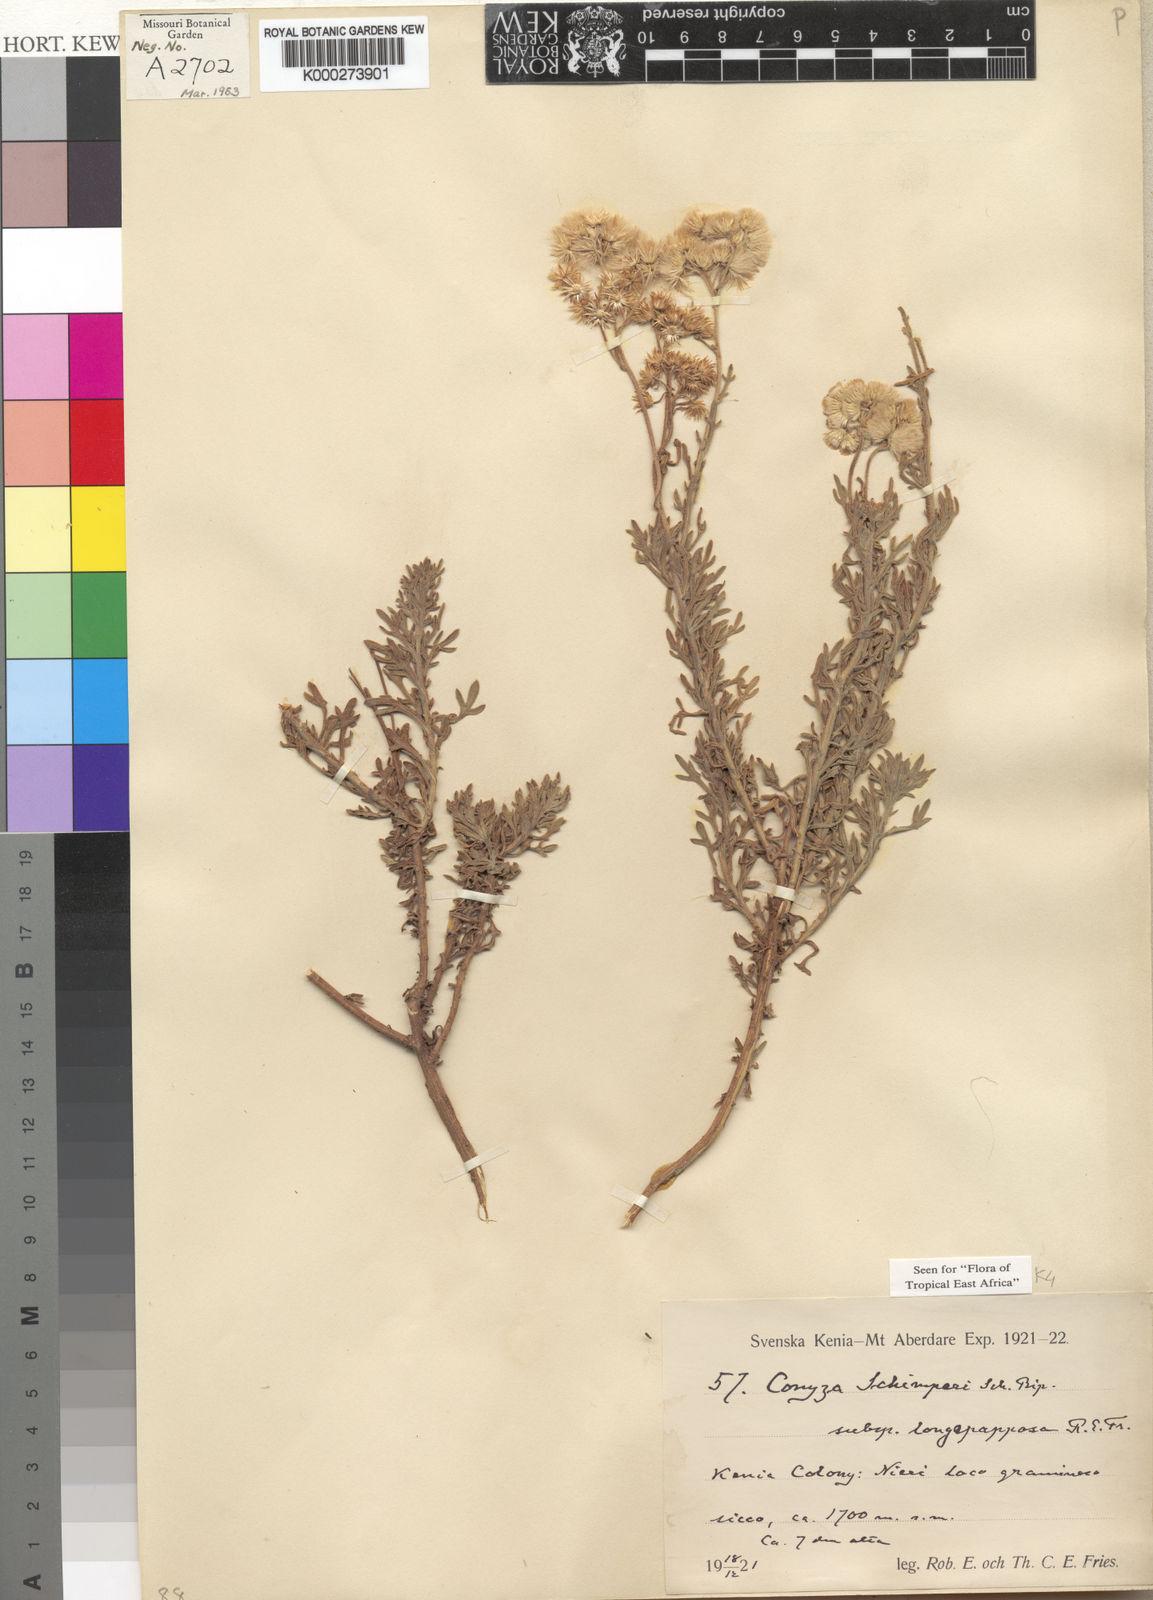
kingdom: Plantae
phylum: Tracheophyta
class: Magnoliopsida
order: Asterales
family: Asteraceae
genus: Conyza
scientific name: Conyza schimperi
